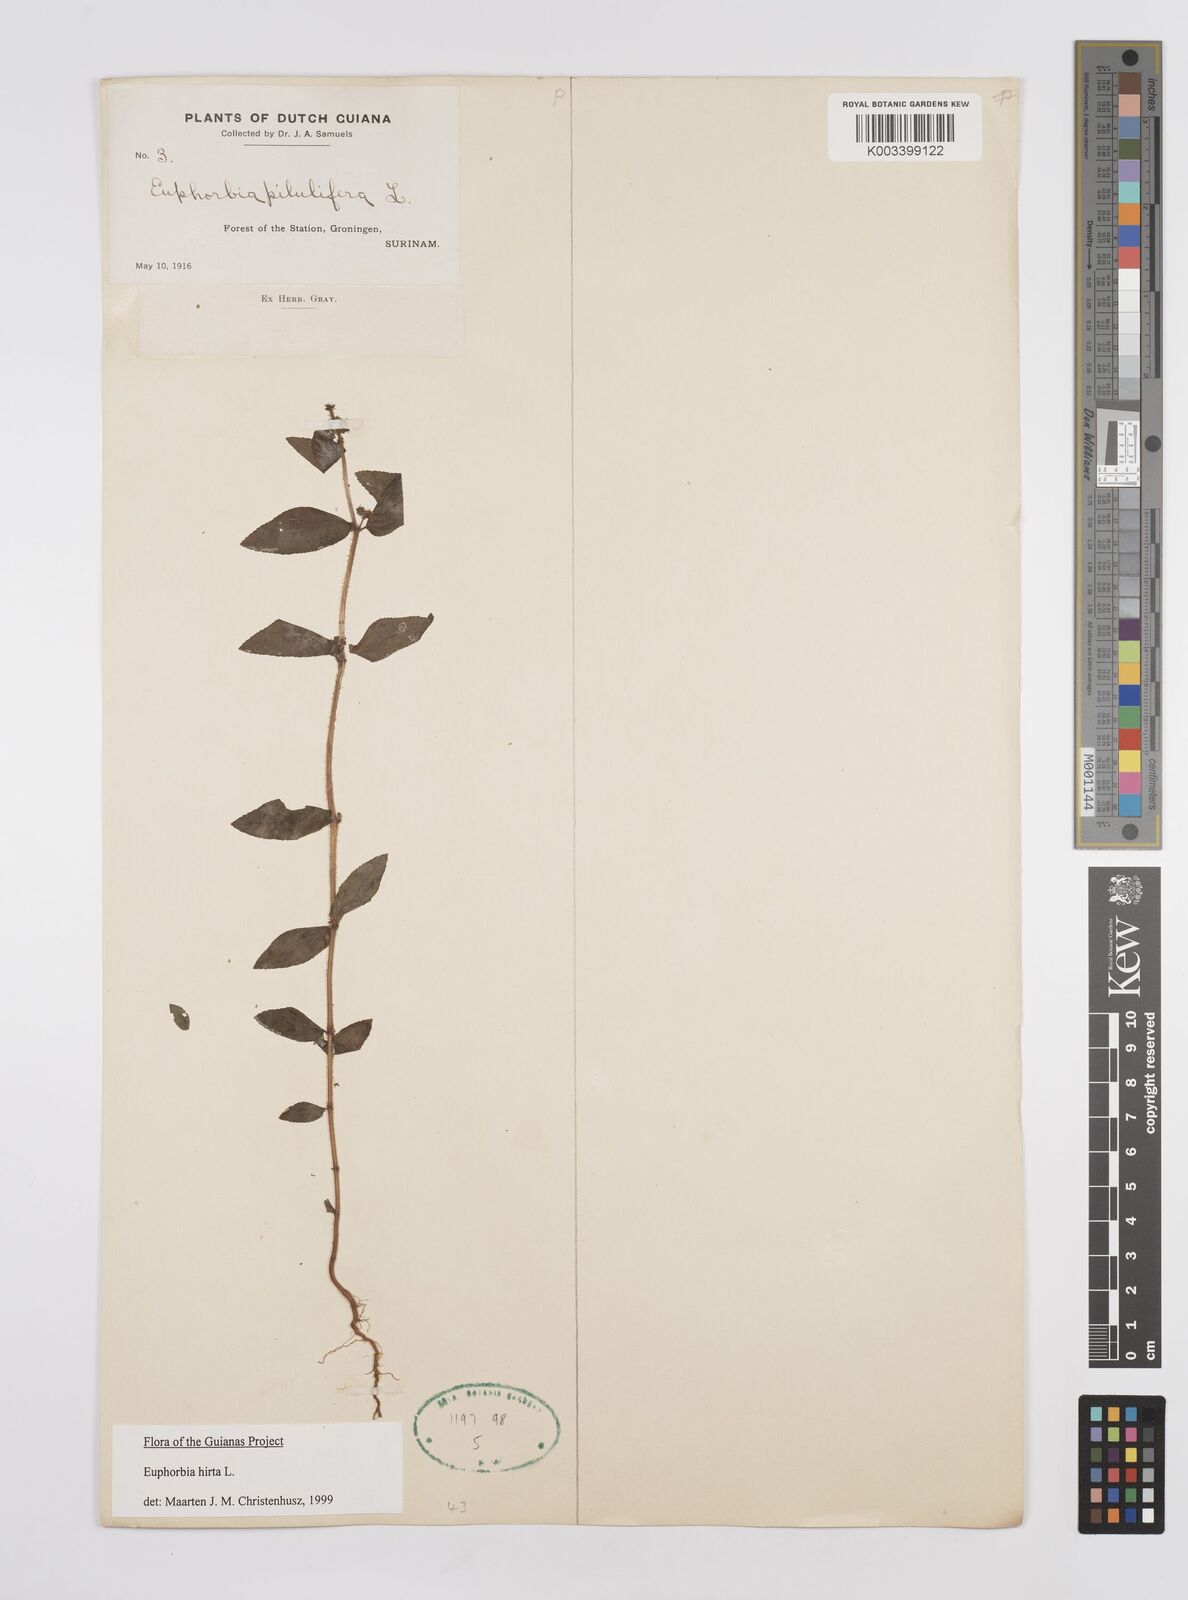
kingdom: Plantae
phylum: Tracheophyta
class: Magnoliopsida
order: Malpighiales
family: Euphorbiaceae
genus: Euphorbia
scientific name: Euphorbia hirta
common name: Pillpod sandmat
